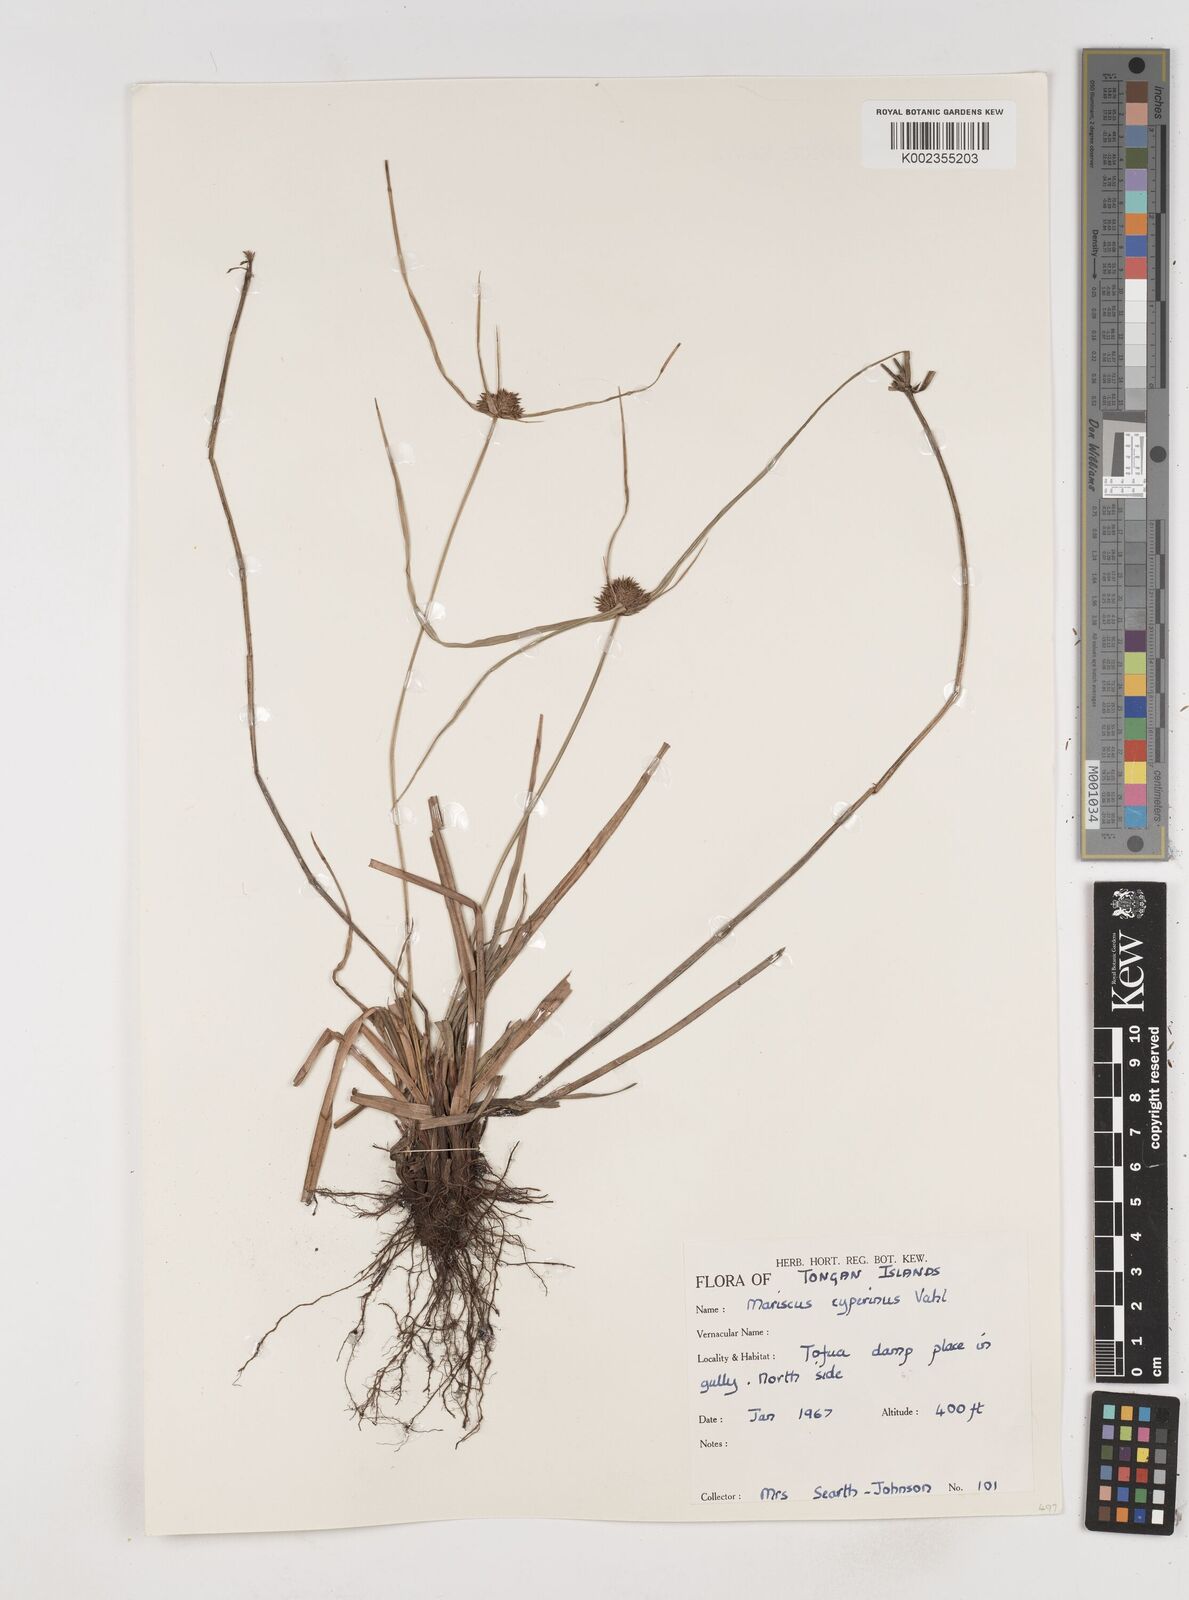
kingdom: Plantae
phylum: Tracheophyta
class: Liliopsida
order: Poales
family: Cyperaceae
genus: Cyperus
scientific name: Cyperus cyperinus
